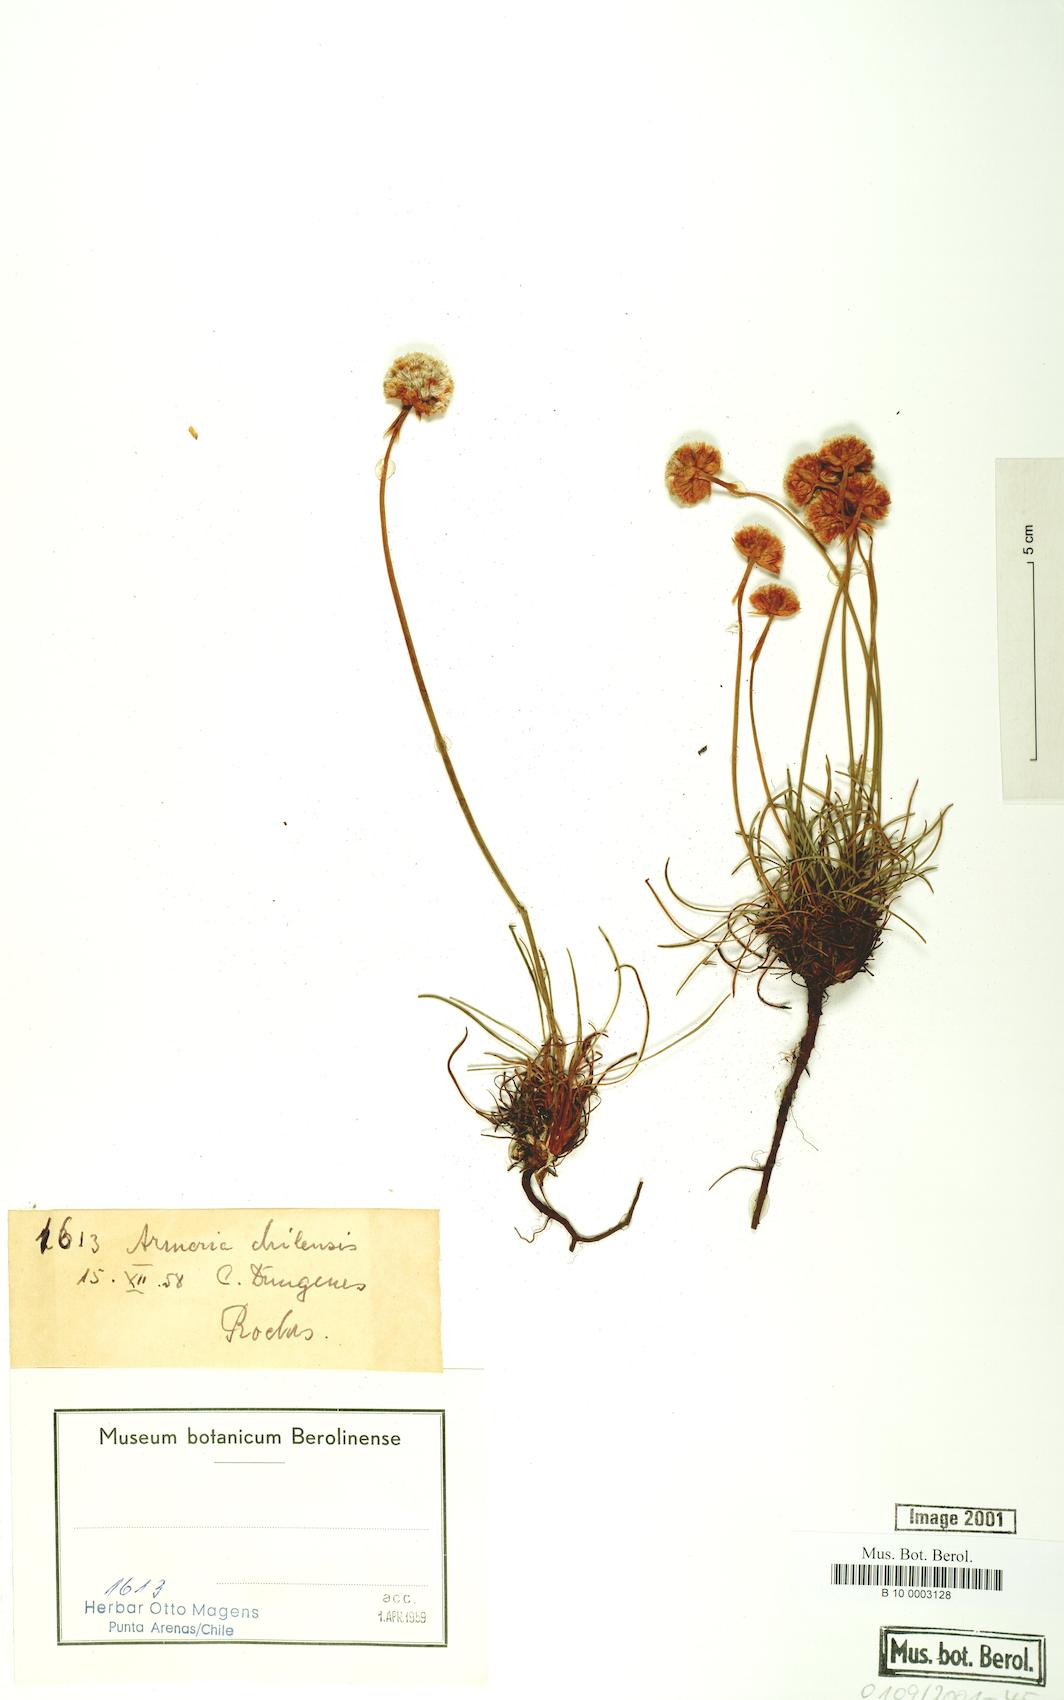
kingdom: Plantae
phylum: Tracheophyta
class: Magnoliopsida
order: Caryophyllales
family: Plumbaginaceae
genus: Armeria
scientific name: Armeria curvifolia
